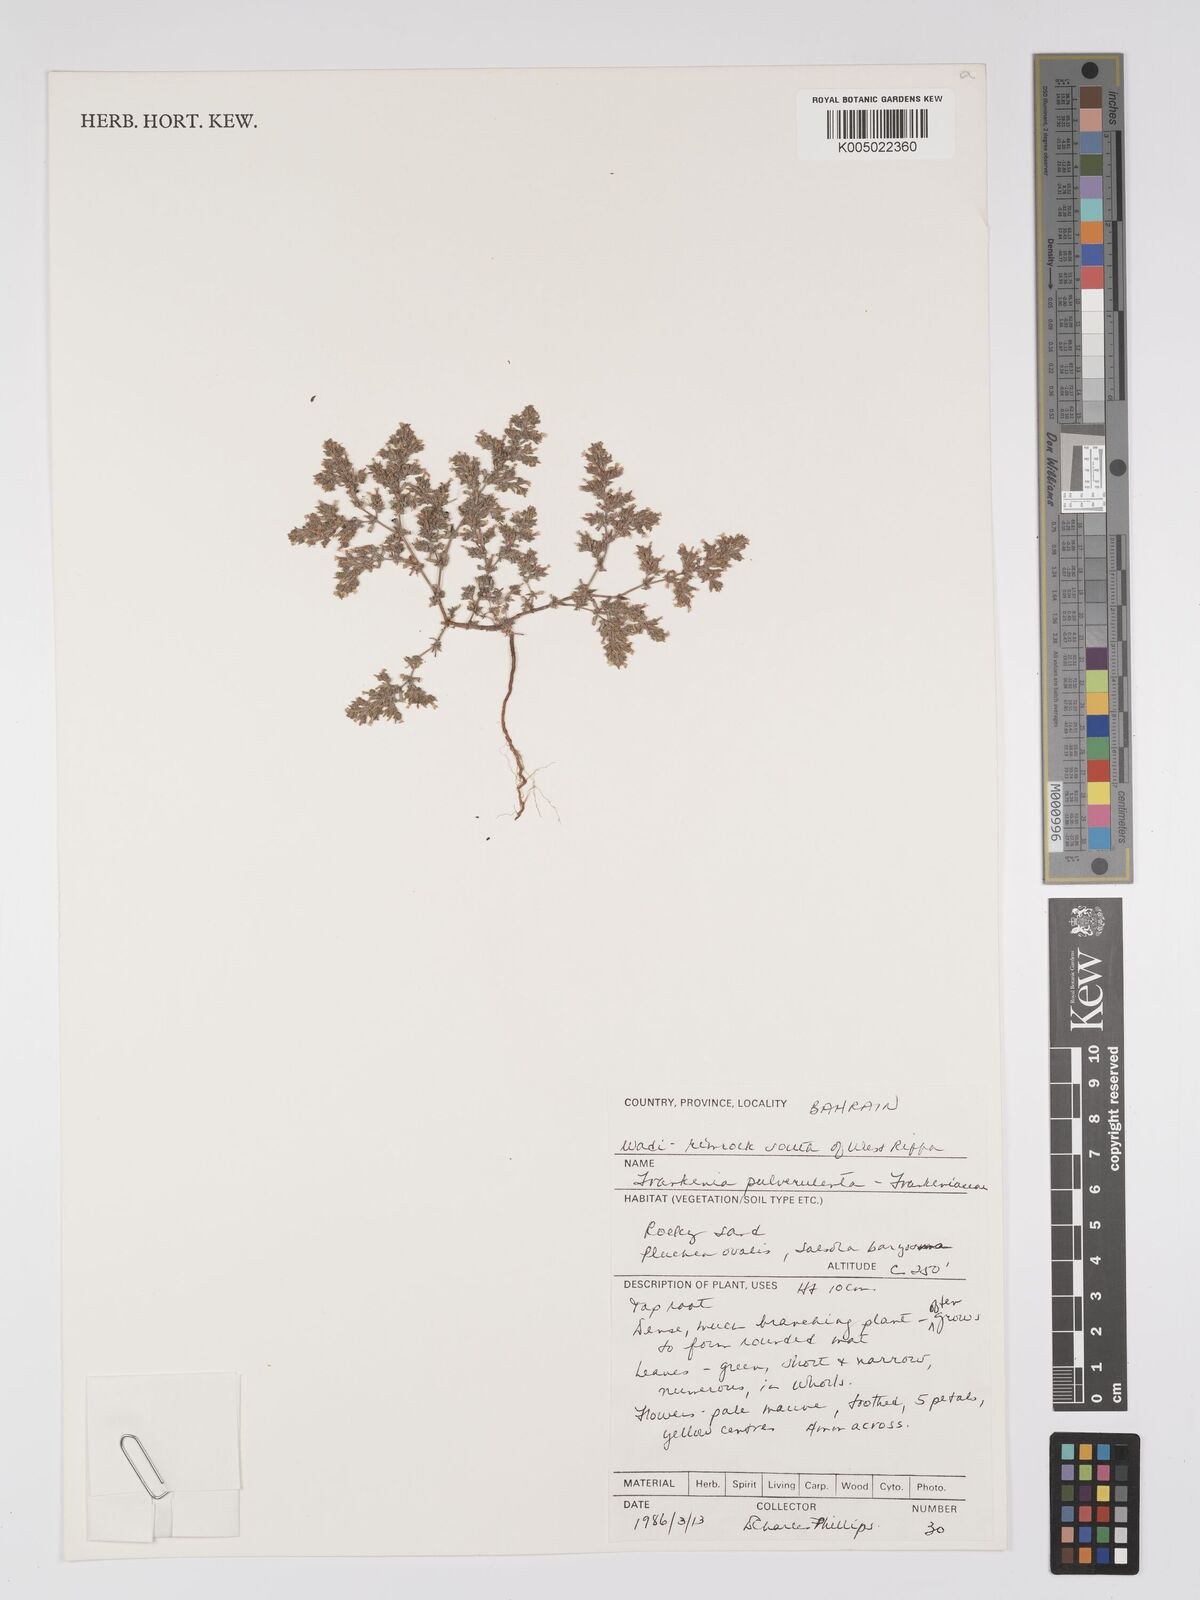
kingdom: Plantae
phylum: Tracheophyta
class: Magnoliopsida
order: Caryophyllales
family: Frankeniaceae
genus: Frankenia
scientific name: Frankenia pulverulenta
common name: European seaheath
